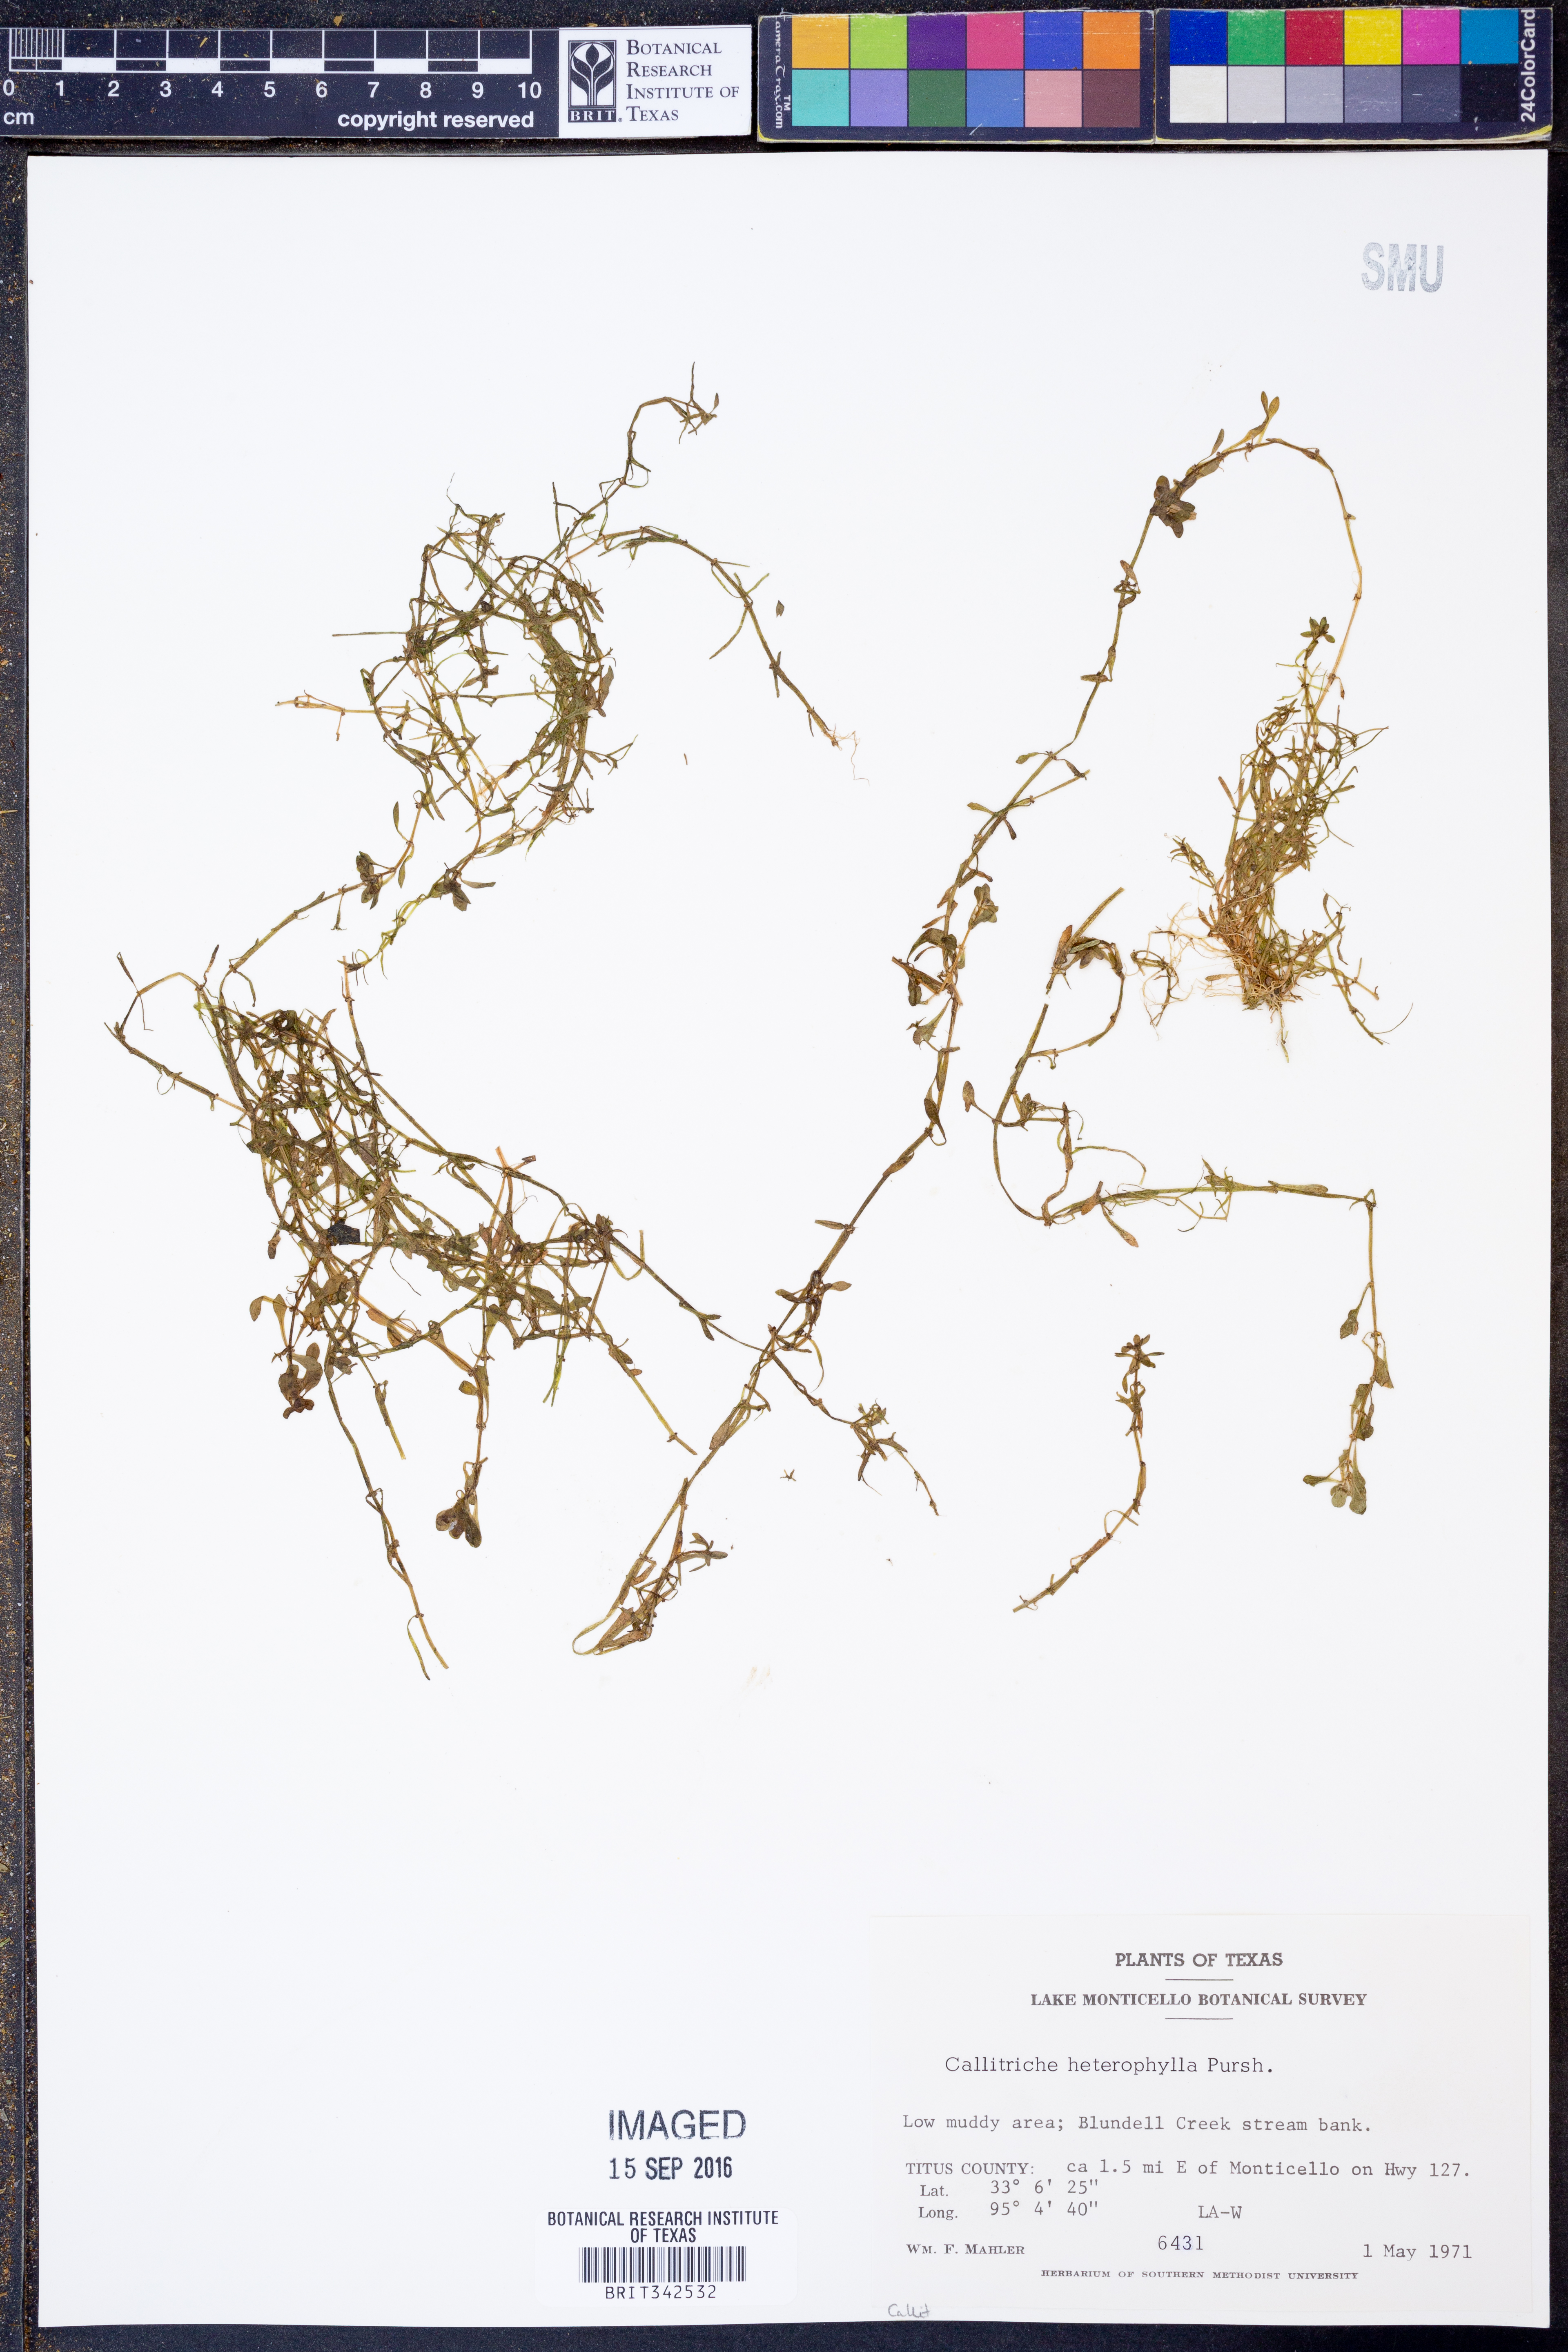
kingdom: Plantae
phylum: Tracheophyta
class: Magnoliopsida
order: Lamiales
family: Plantaginaceae
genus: Callitriche
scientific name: Callitriche heterophylla
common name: Two-headed water-starwort
